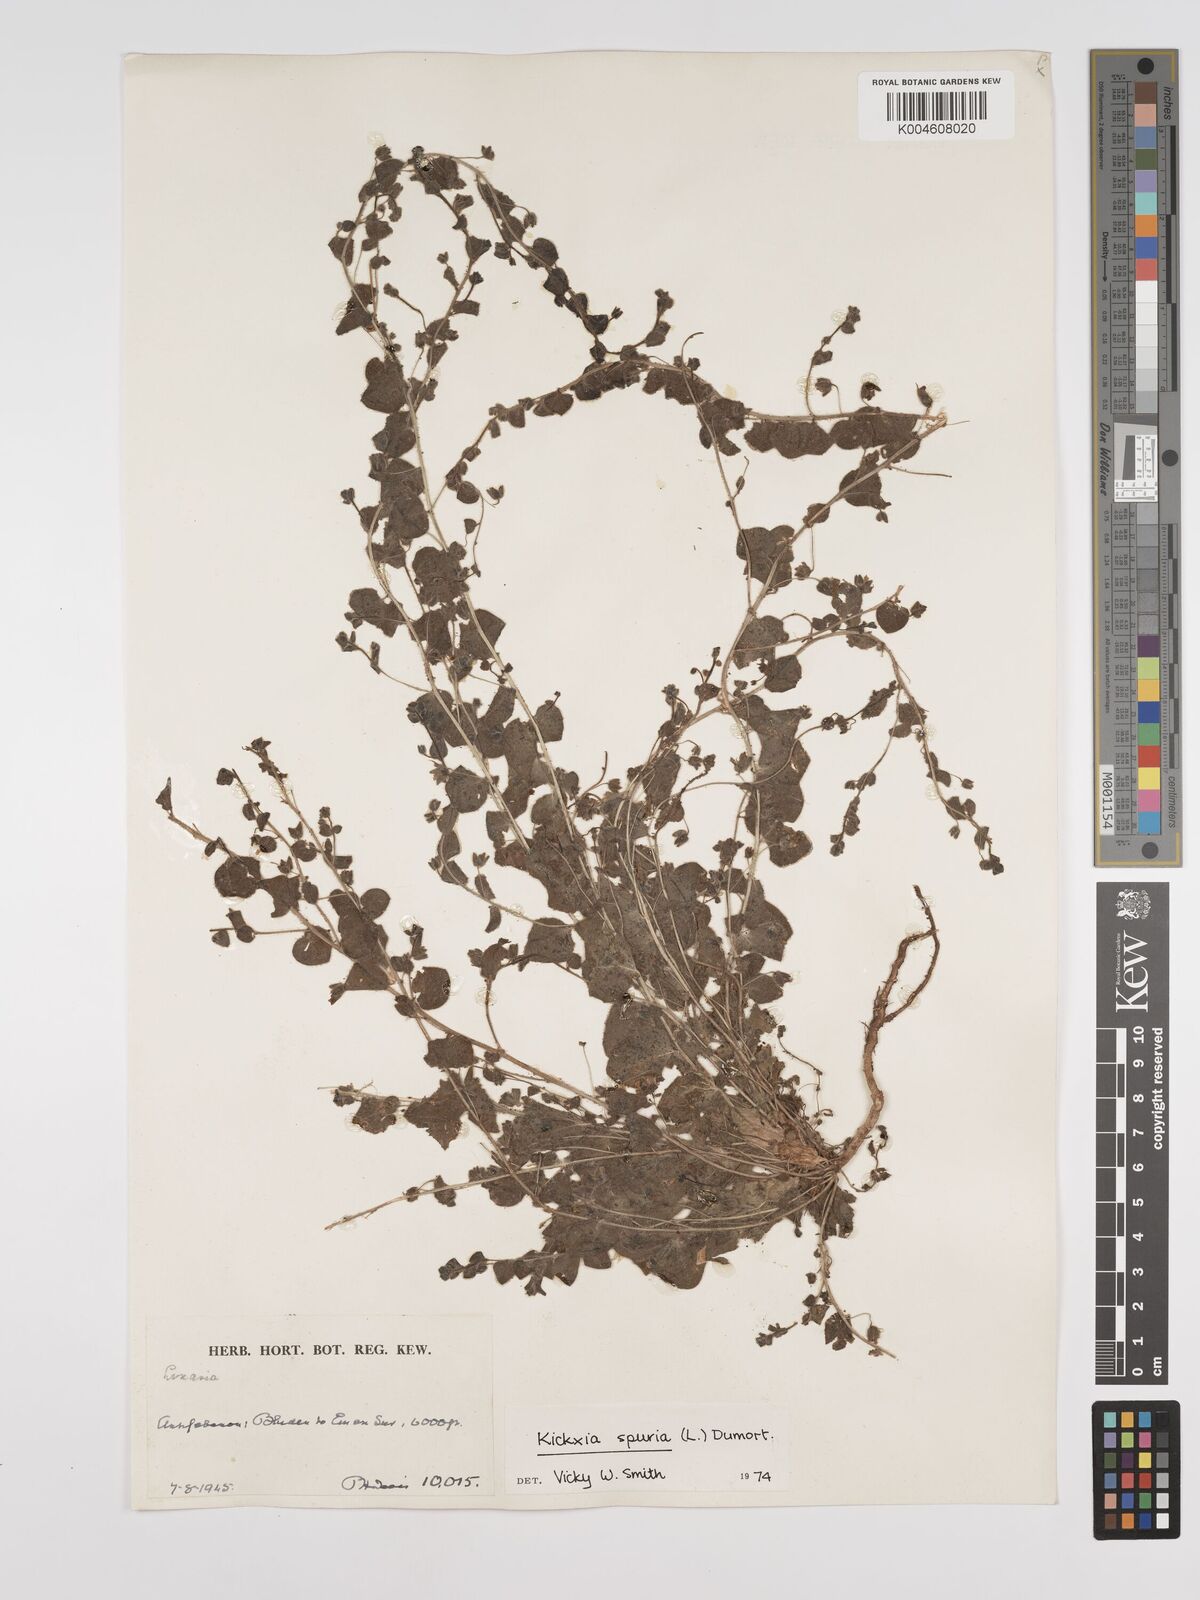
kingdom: Plantae
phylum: Tracheophyta
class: Magnoliopsida
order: Lamiales
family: Plantaginaceae
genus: Kickxia
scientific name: Kickxia spuria
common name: Round-leaved fluellen
